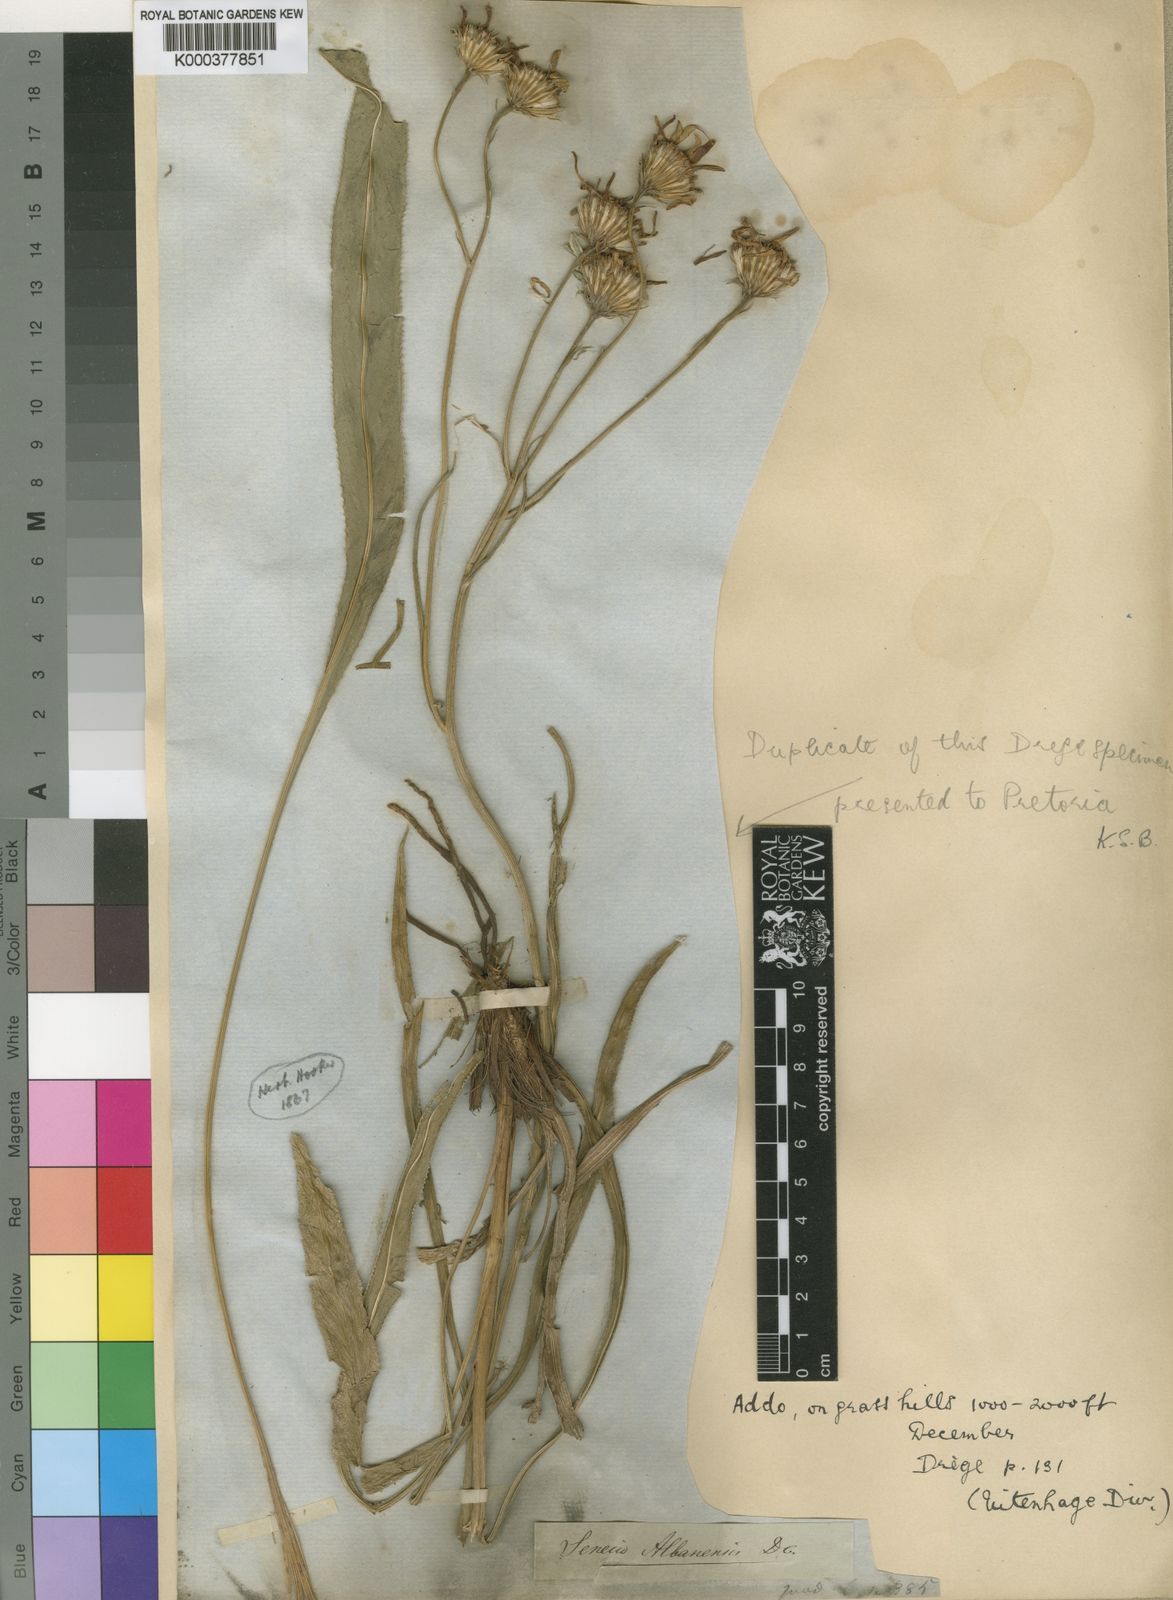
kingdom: Plantae
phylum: Tracheophyta
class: Magnoliopsida
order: Asterales
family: Asteraceae
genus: Senecio
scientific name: Senecio albanensis
